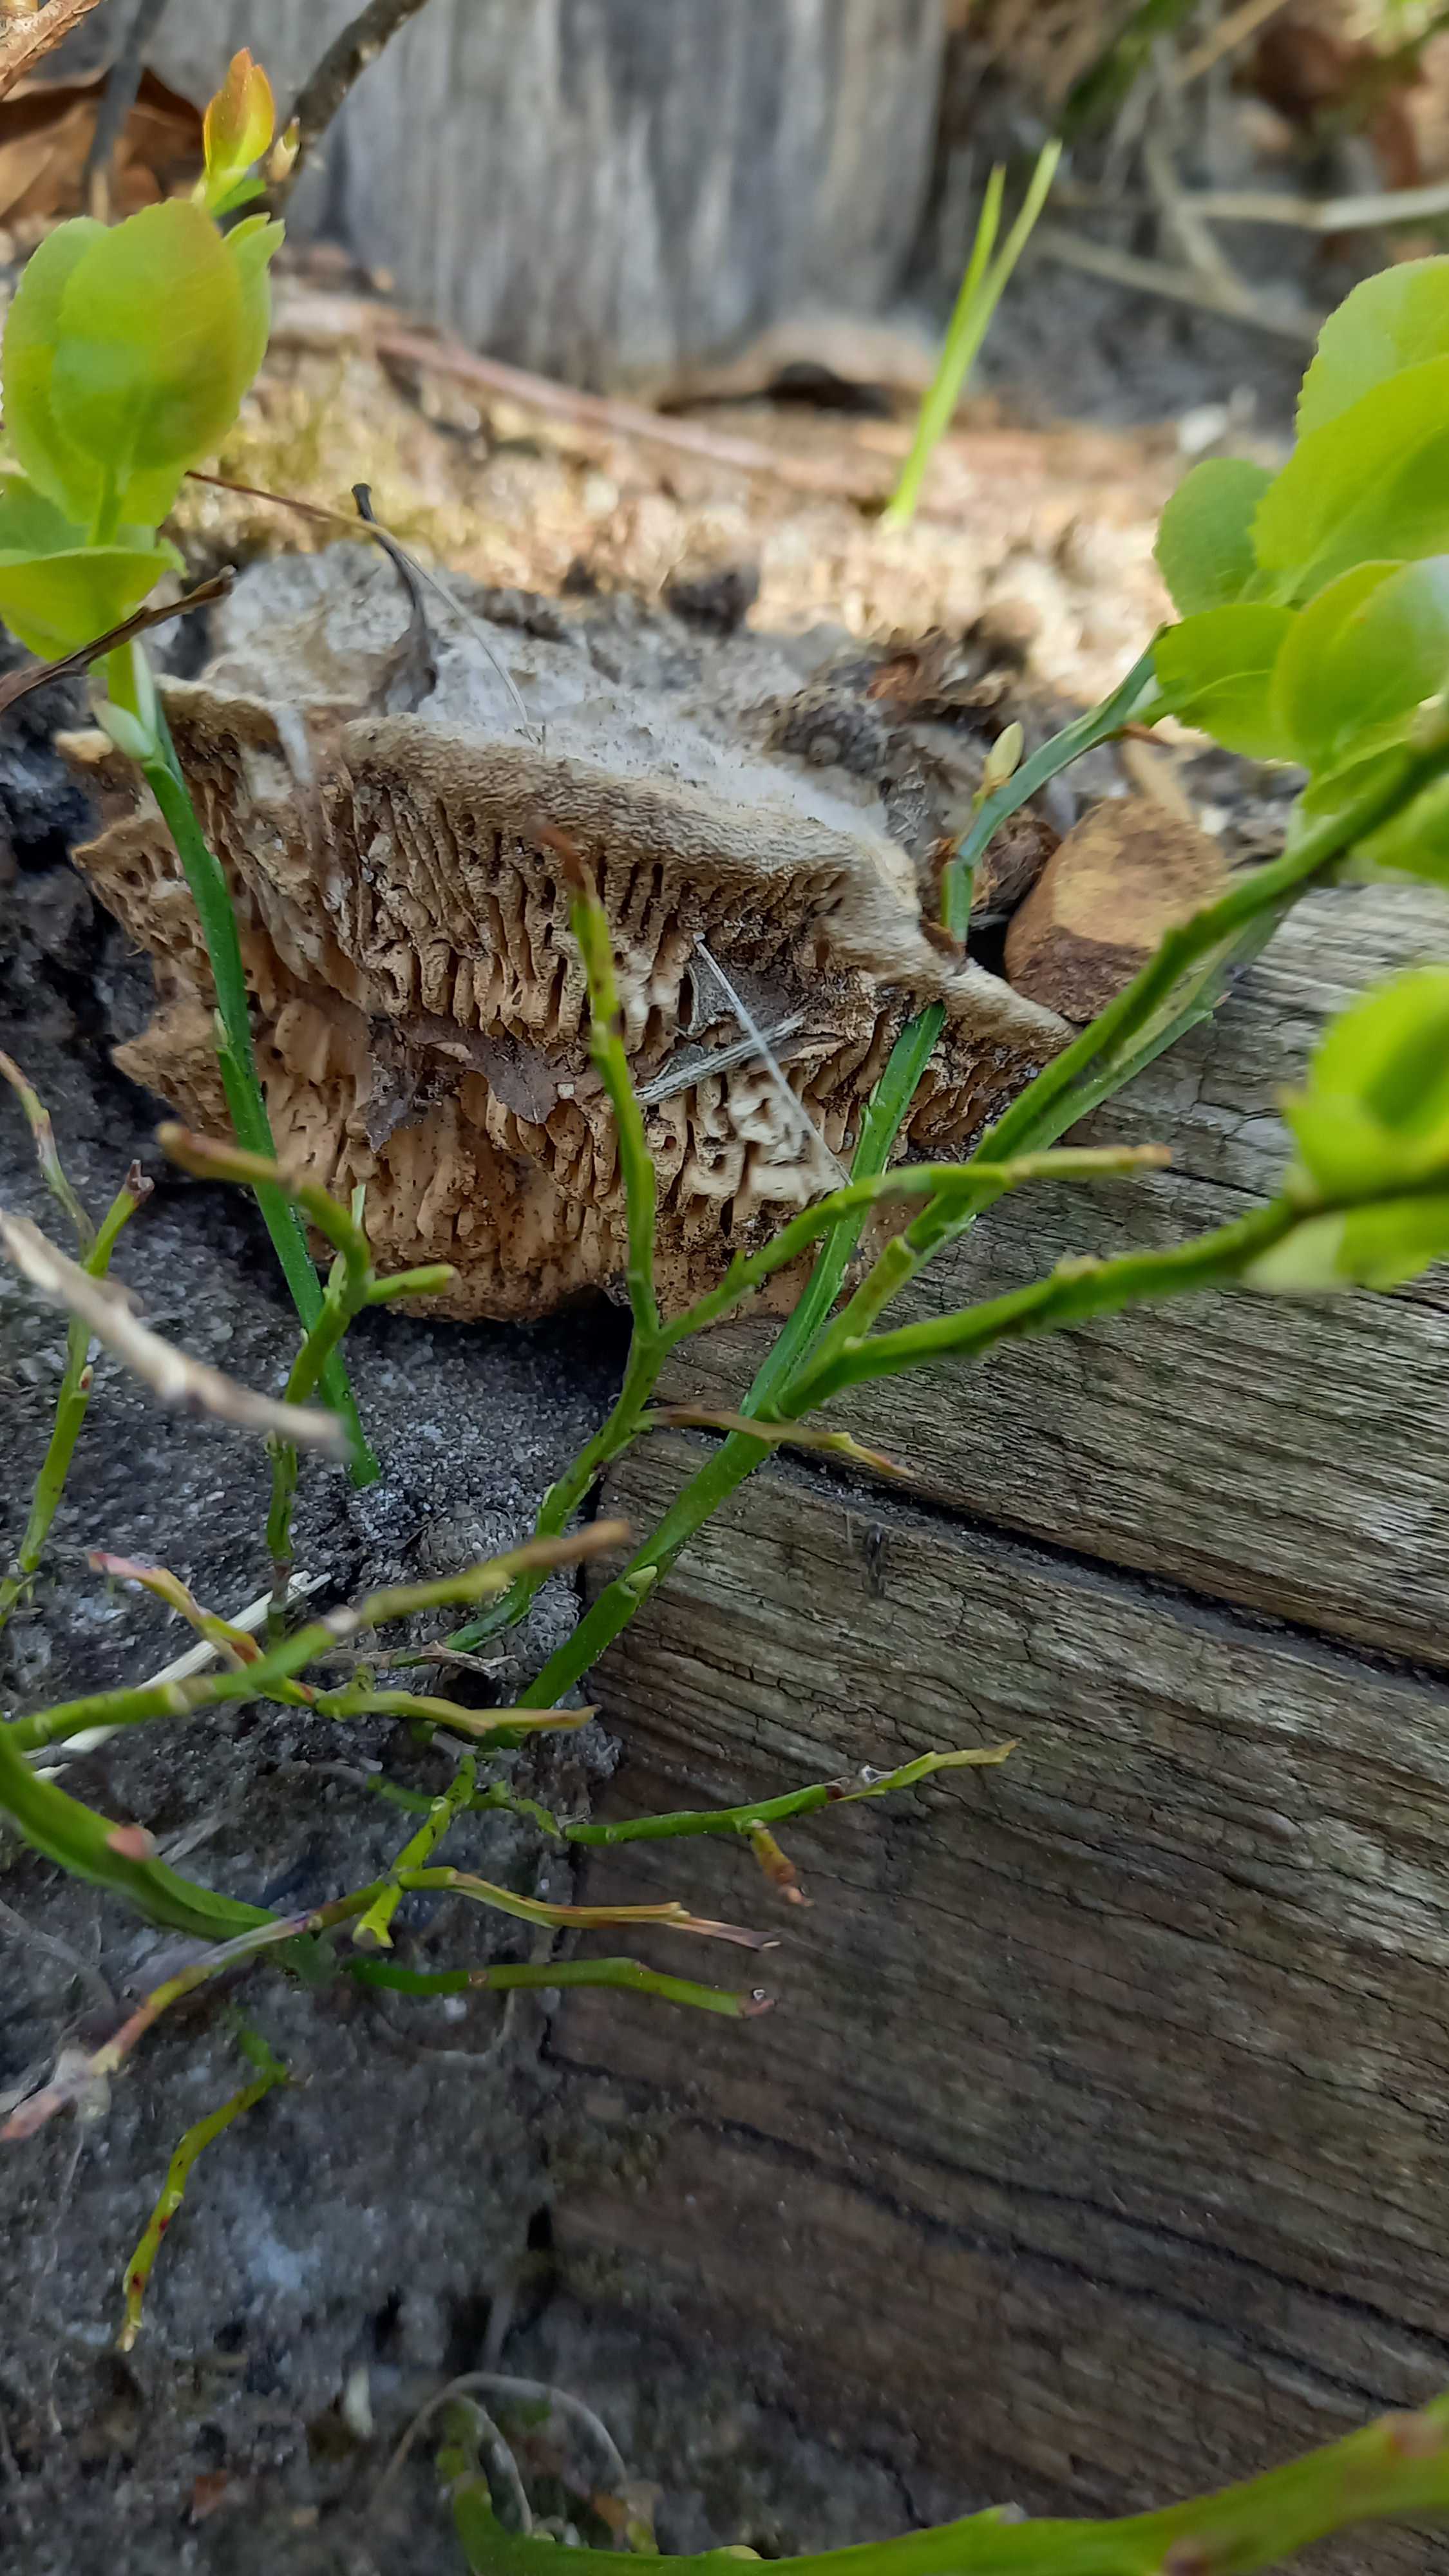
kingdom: Fungi
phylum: Basidiomycota
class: Agaricomycetes
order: Polyporales
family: Fomitopsidaceae
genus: Daedalea
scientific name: Daedalea quercina
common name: ege-labyrintsvamp
